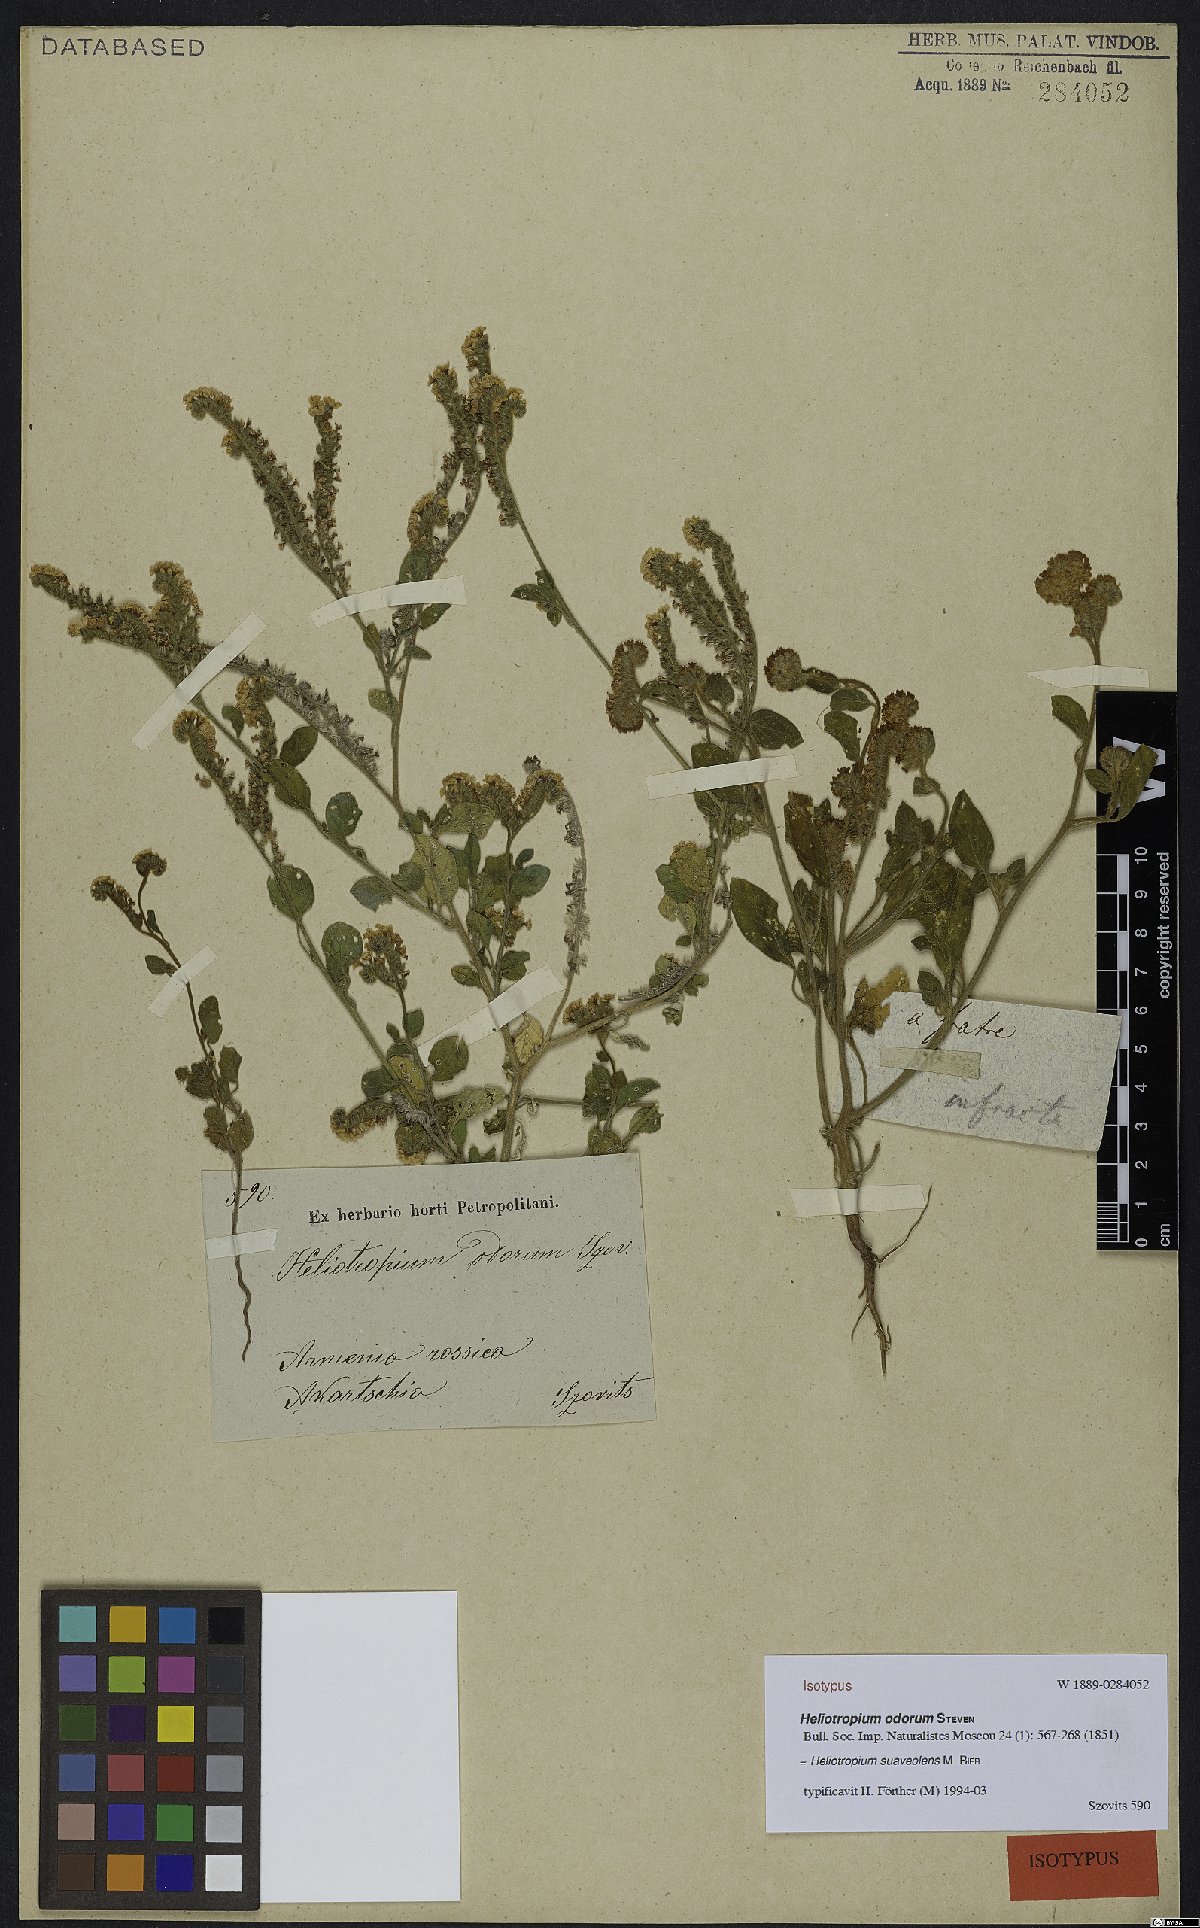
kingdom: Plantae
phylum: Tracheophyta
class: Magnoliopsida
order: Boraginales
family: Heliotropiaceae
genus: Heliotropium
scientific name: Heliotropium suaveolens
